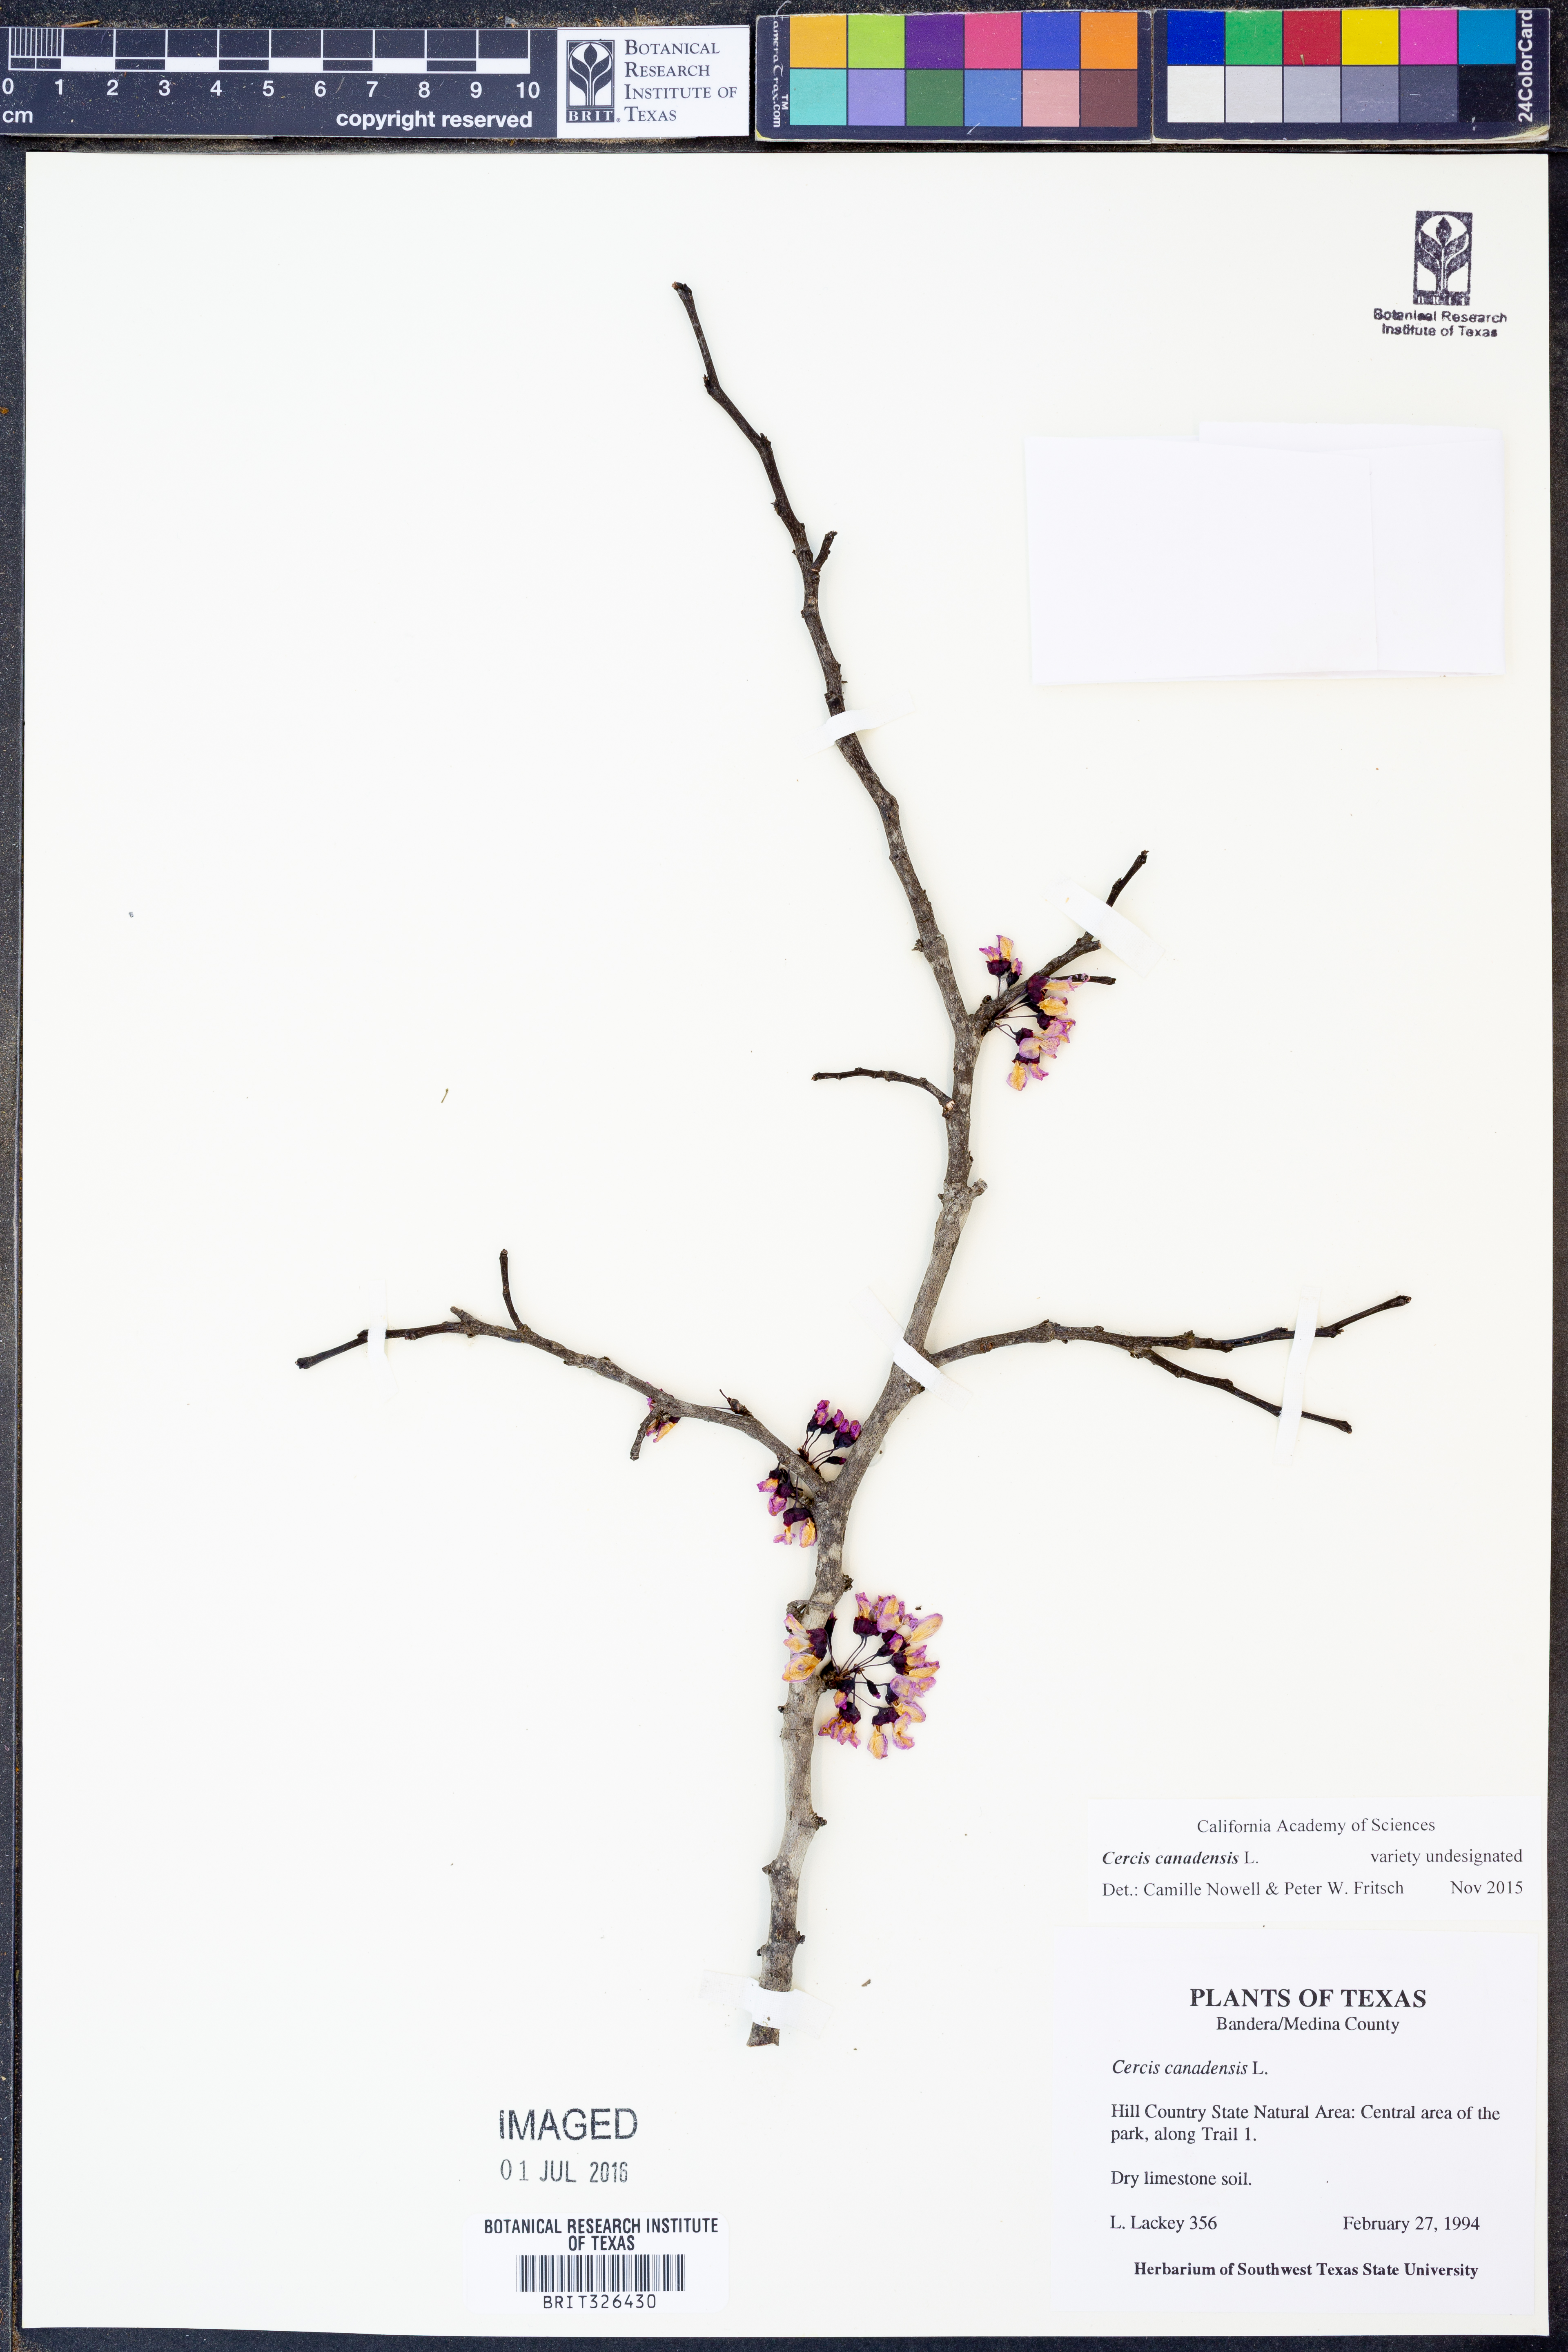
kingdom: Plantae
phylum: Tracheophyta
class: Magnoliopsida
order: Fabales
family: Fabaceae
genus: Cercis
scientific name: Cercis canadensis
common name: Eastern redbud
